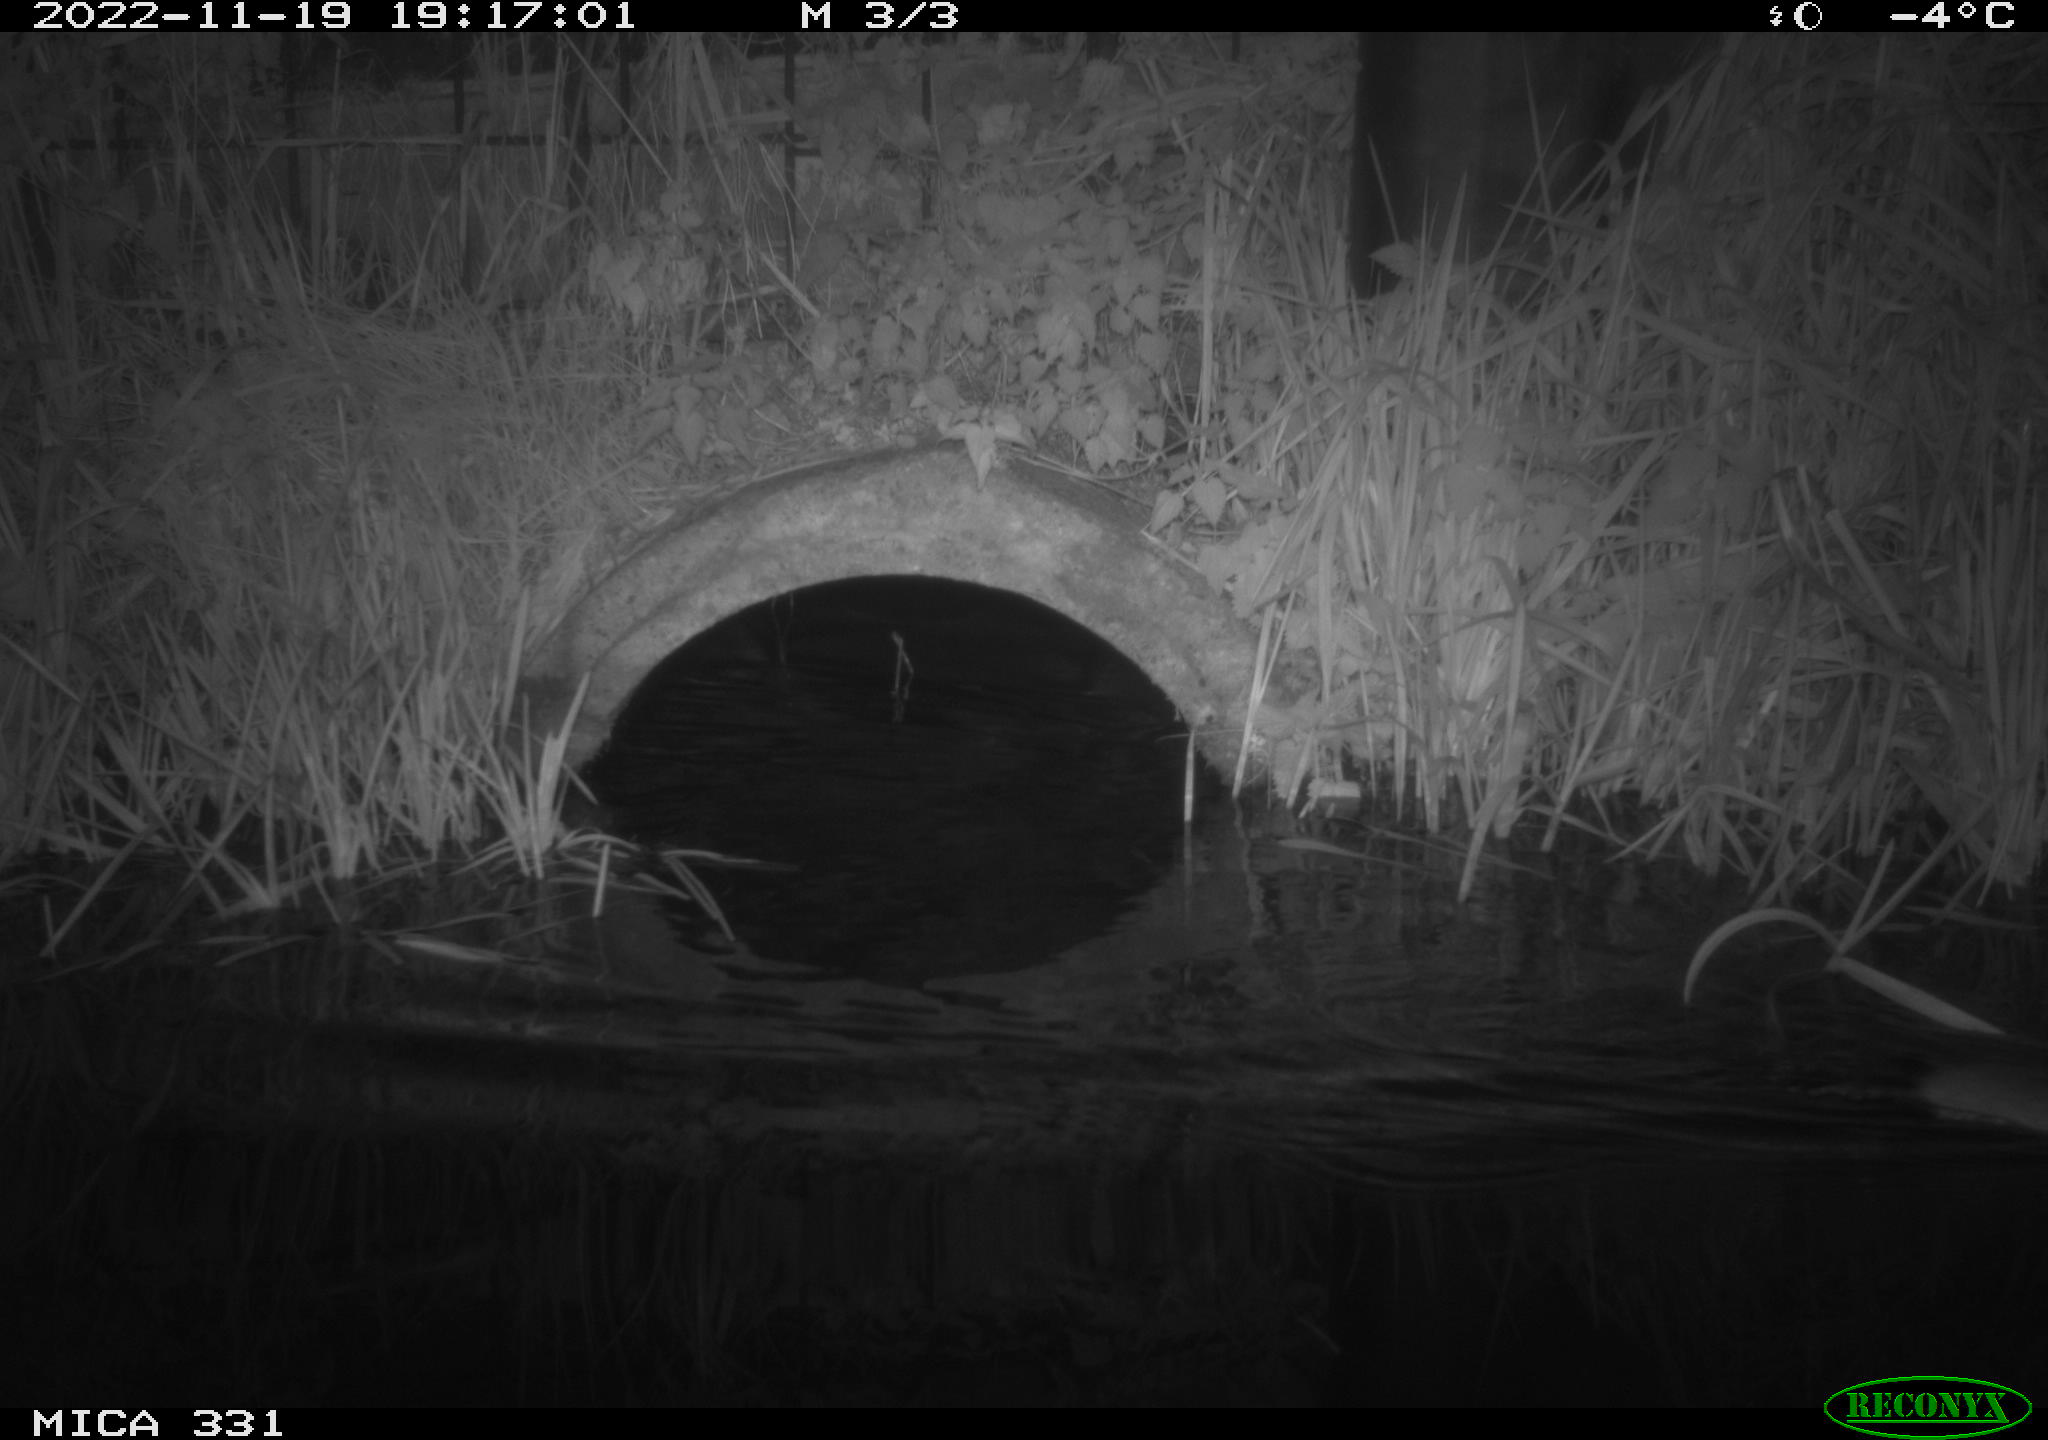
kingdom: Animalia
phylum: Chordata
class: Mammalia
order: Rodentia
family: Muridae
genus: Rattus
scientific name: Rattus norvegicus
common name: Brown rat
